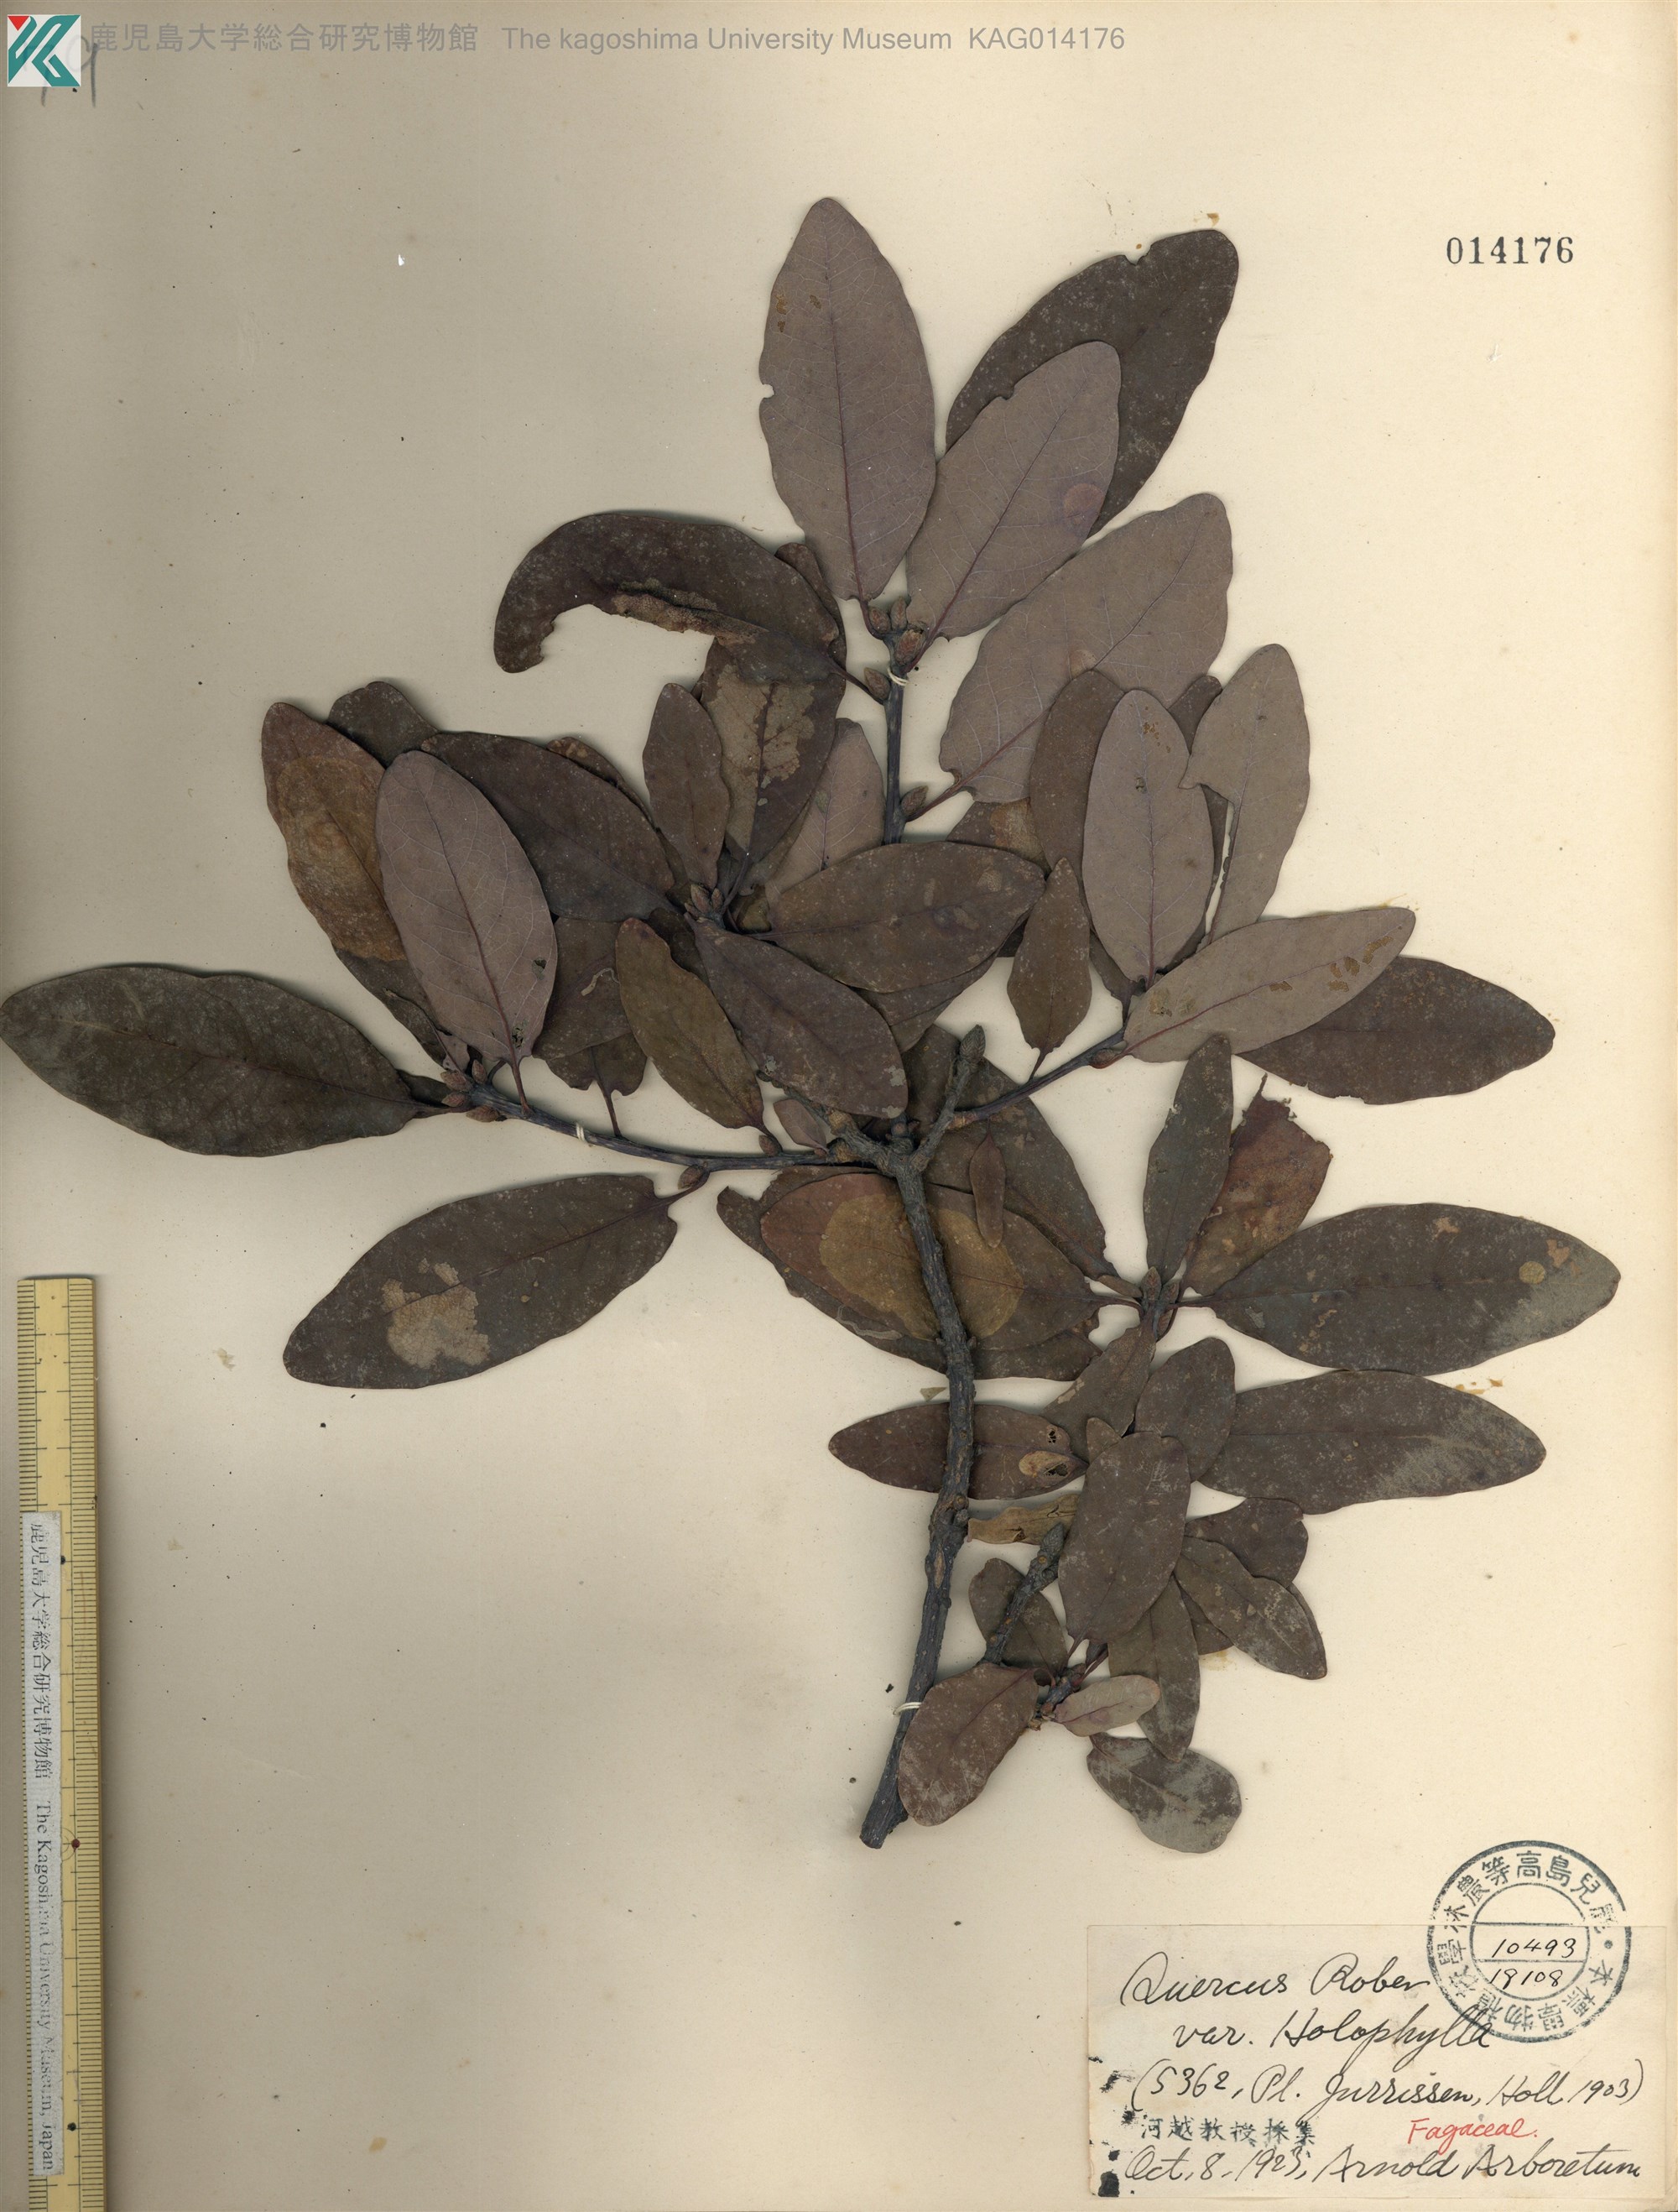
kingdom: Plantae
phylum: Tracheophyta
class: Magnoliopsida
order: Fagales
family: Fagaceae
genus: Quercus
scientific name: Quercus robur
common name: Pedunculate oak
